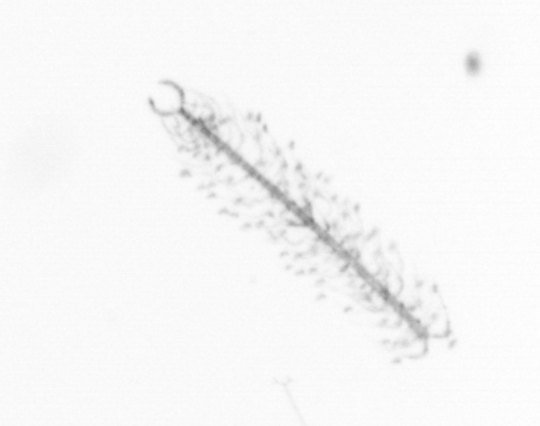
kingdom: Chromista
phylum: Ochrophyta
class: Bacillariophyceae
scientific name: Bacillariophyceae
